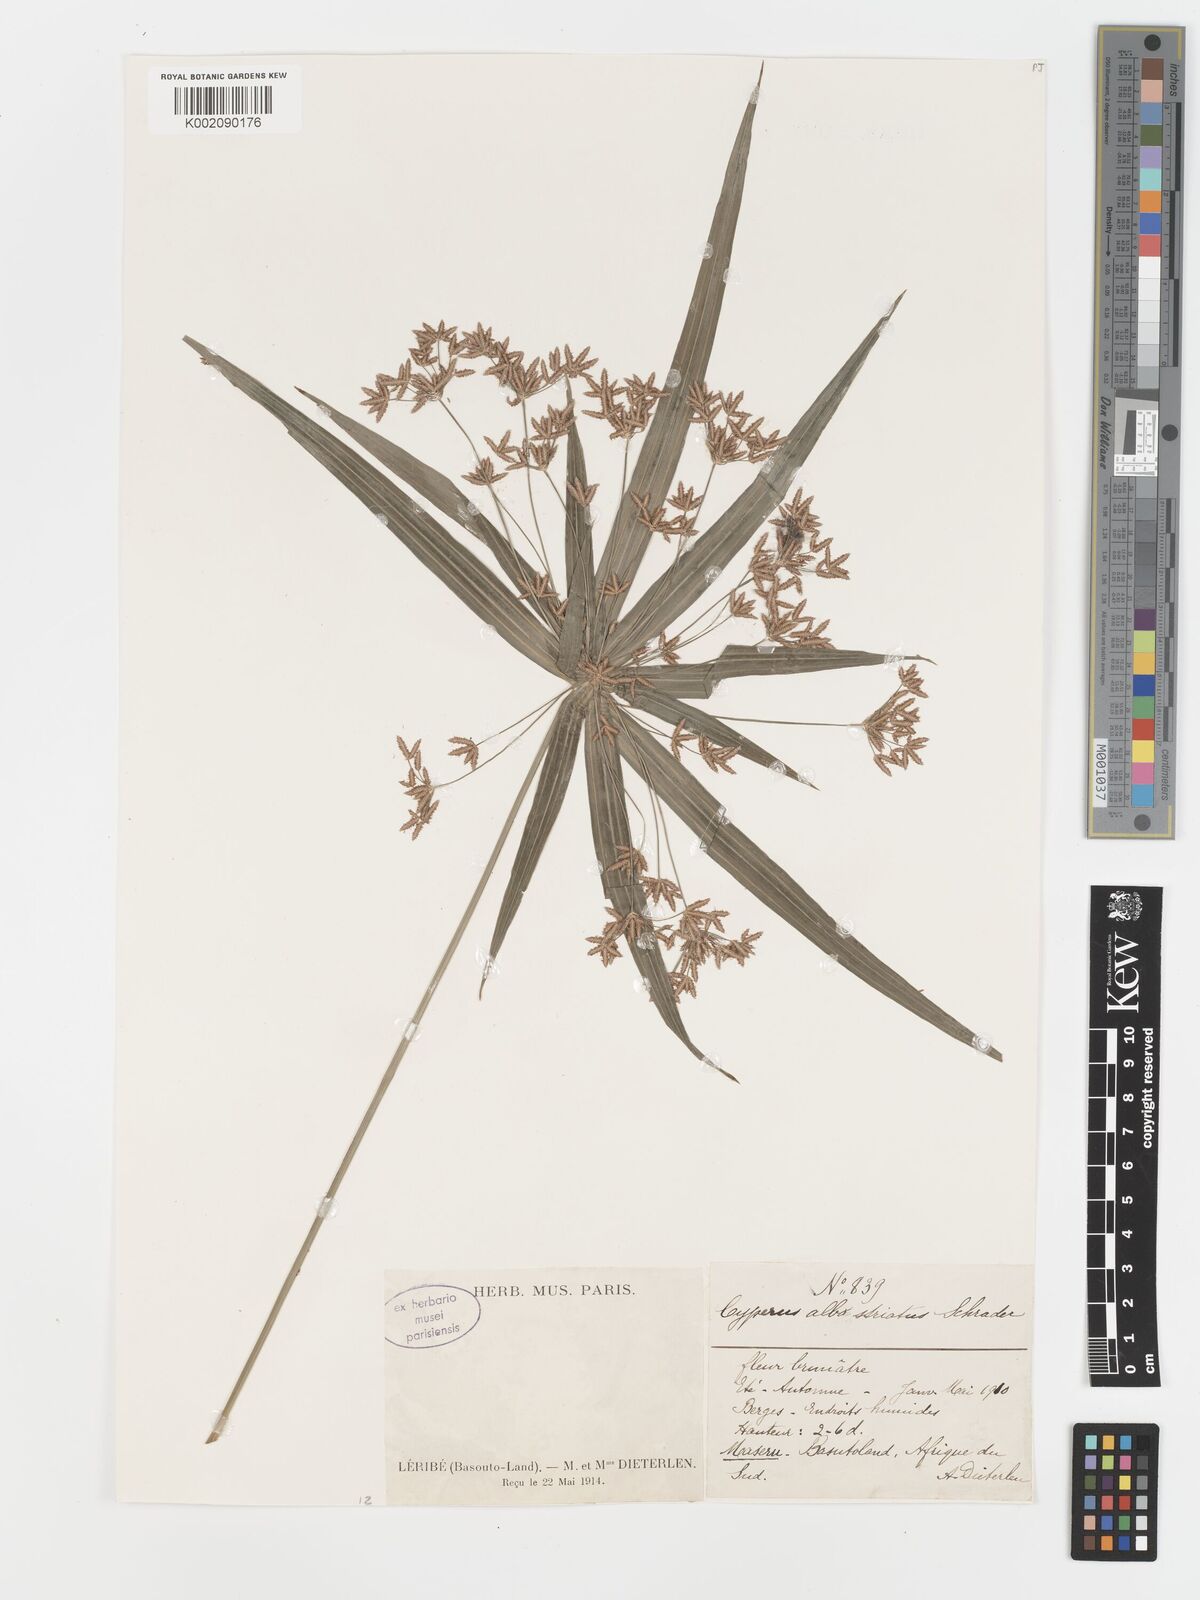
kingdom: Plantae
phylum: Tracheophyta
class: Liliopsida
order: Poales
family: Cyperaceae
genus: Cyperus
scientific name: Cyperus albostriatus
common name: Dwarf umbrella-grass
